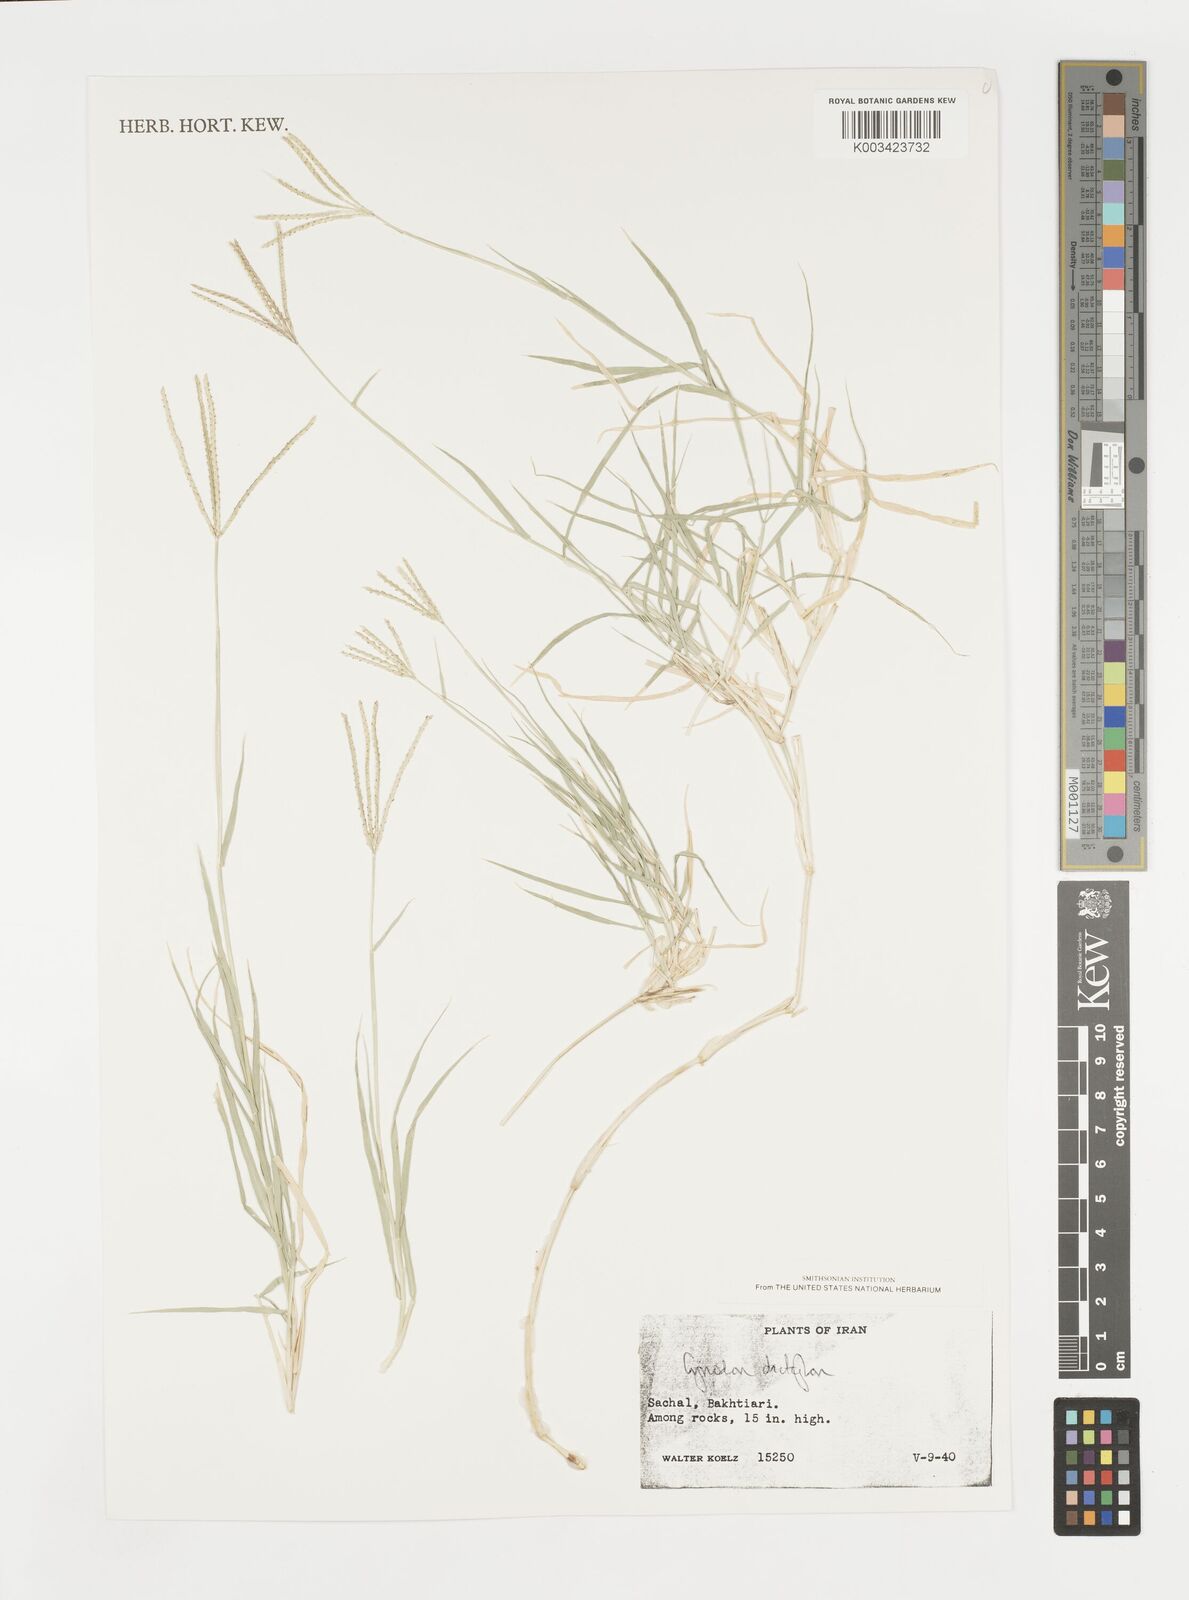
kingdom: Plantae
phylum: Tracheophyta
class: Liliopsida
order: Poales
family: Poaceae
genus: Cynodon
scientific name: Cynodon dactylon
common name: Bermuda grass
